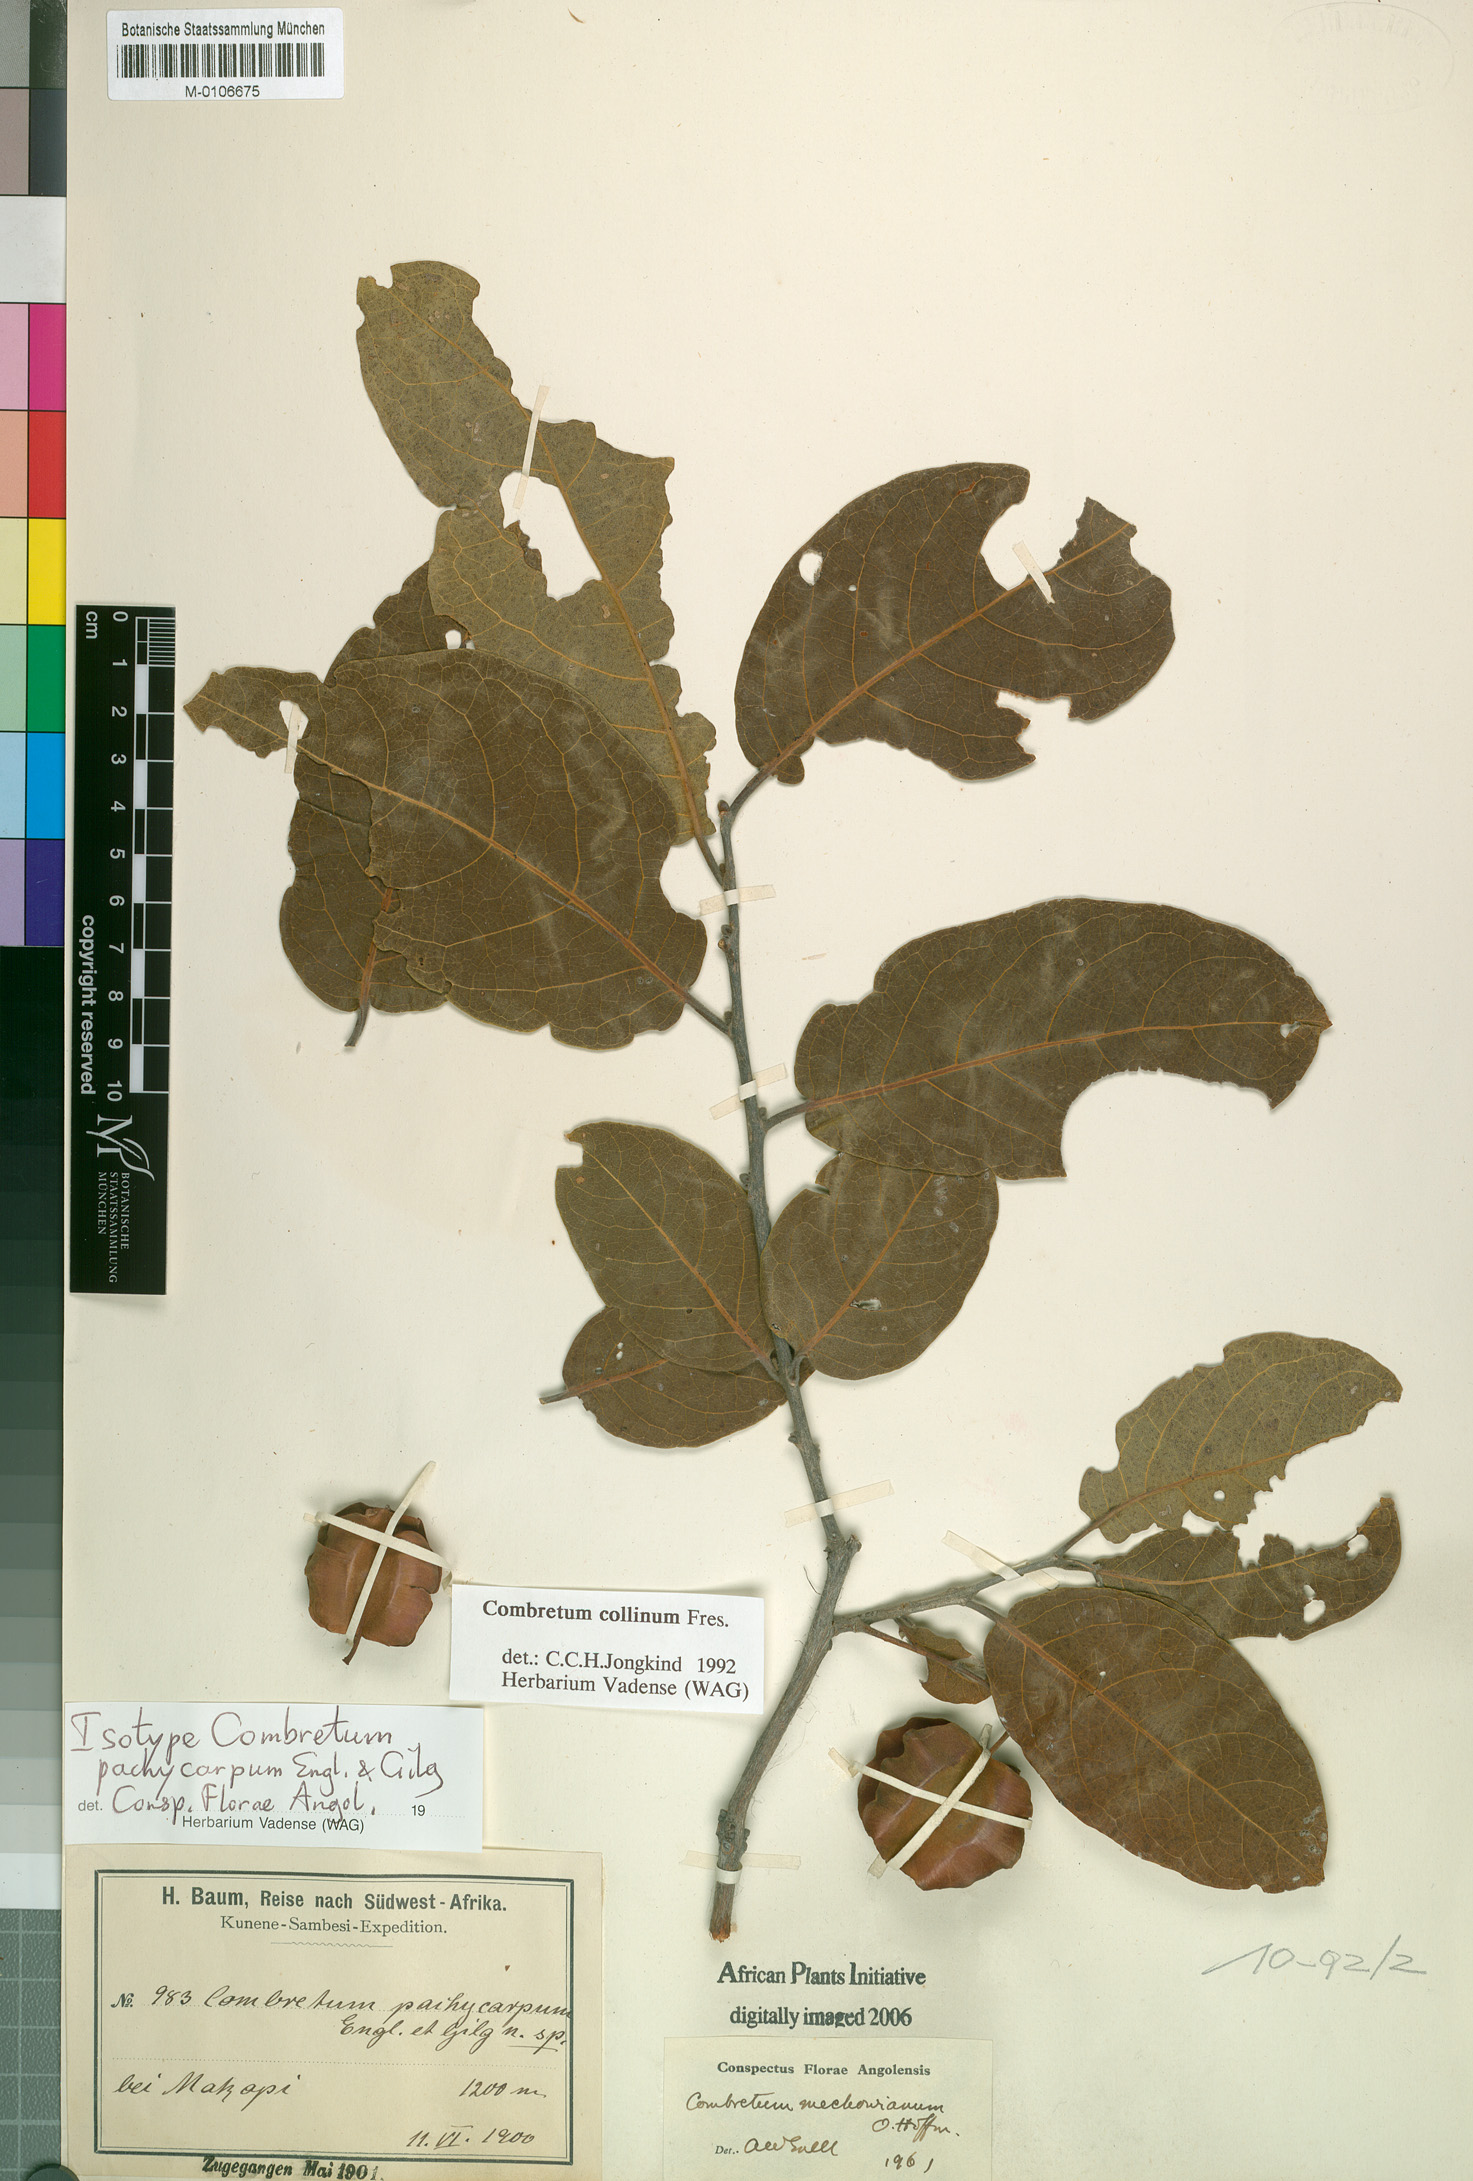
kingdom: Plantae
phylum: Tracheophyta
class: Magnoliopsida
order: Myrtales
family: Combretaceae
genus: Combretum
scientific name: Combretum collinum
